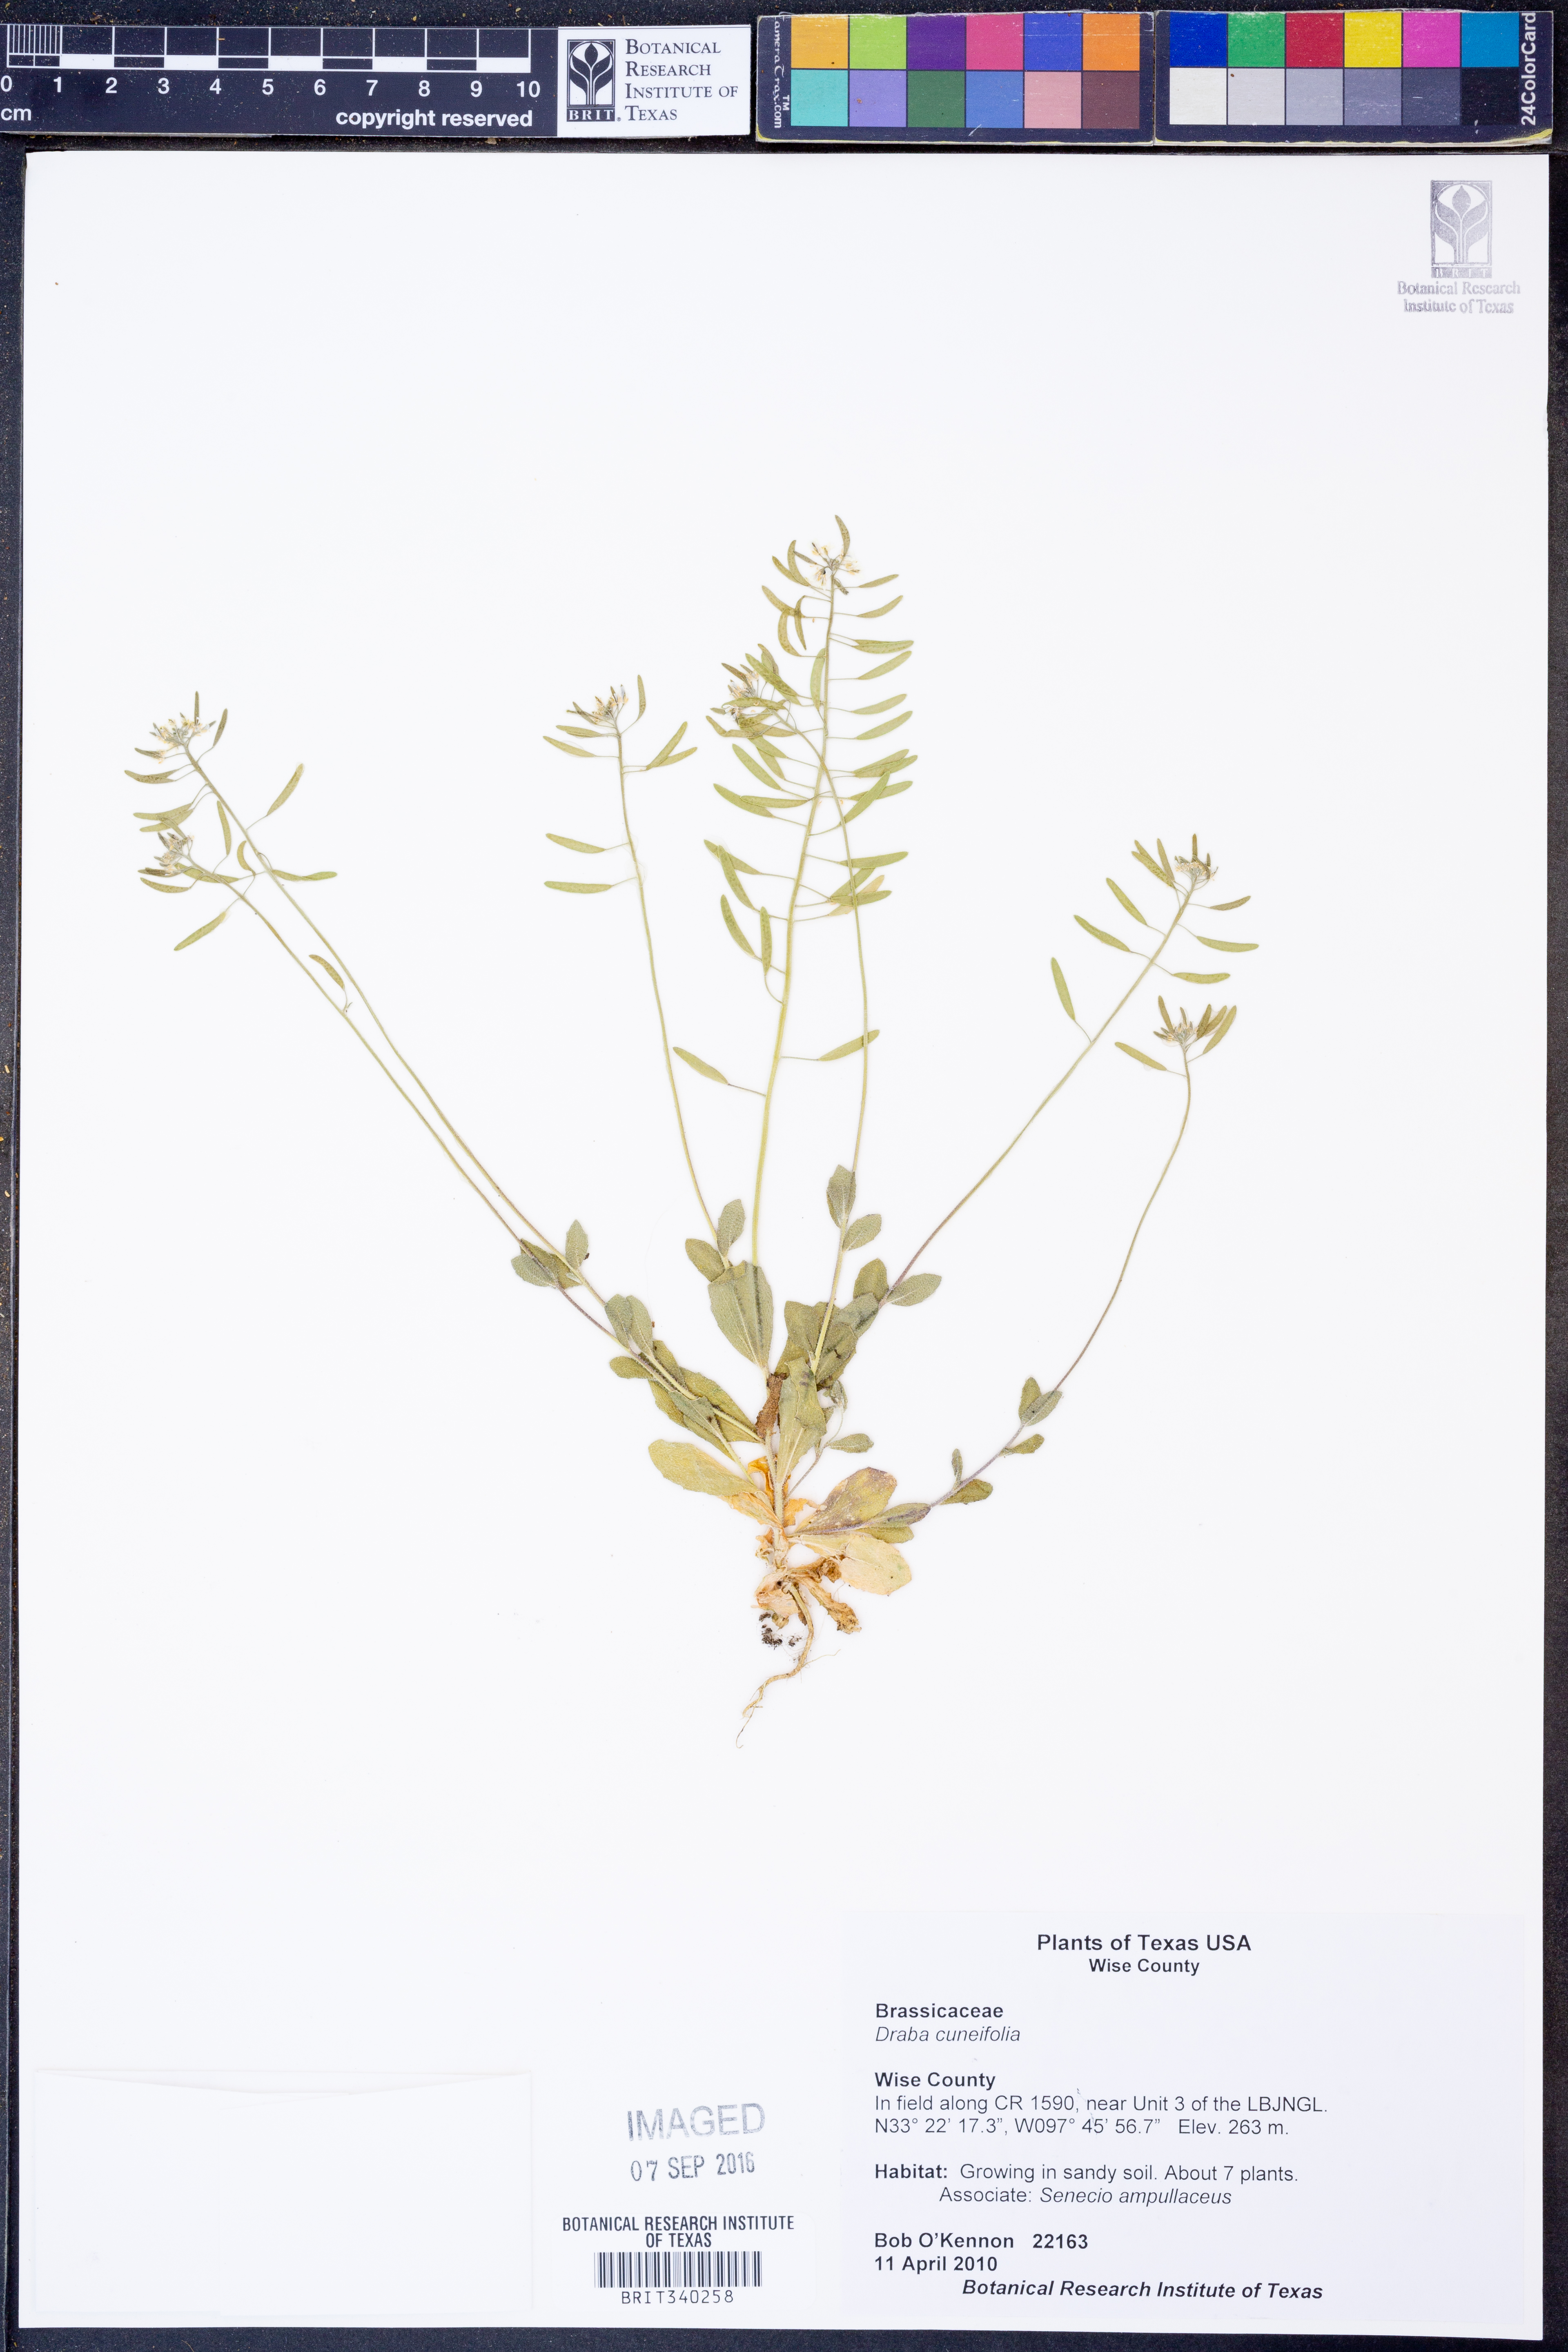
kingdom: Plantae
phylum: Tracheophyta
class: Magnoliopsida
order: Brassicales
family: Brassicaceae
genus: Tomostima
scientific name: Tomostima cuneifolia
